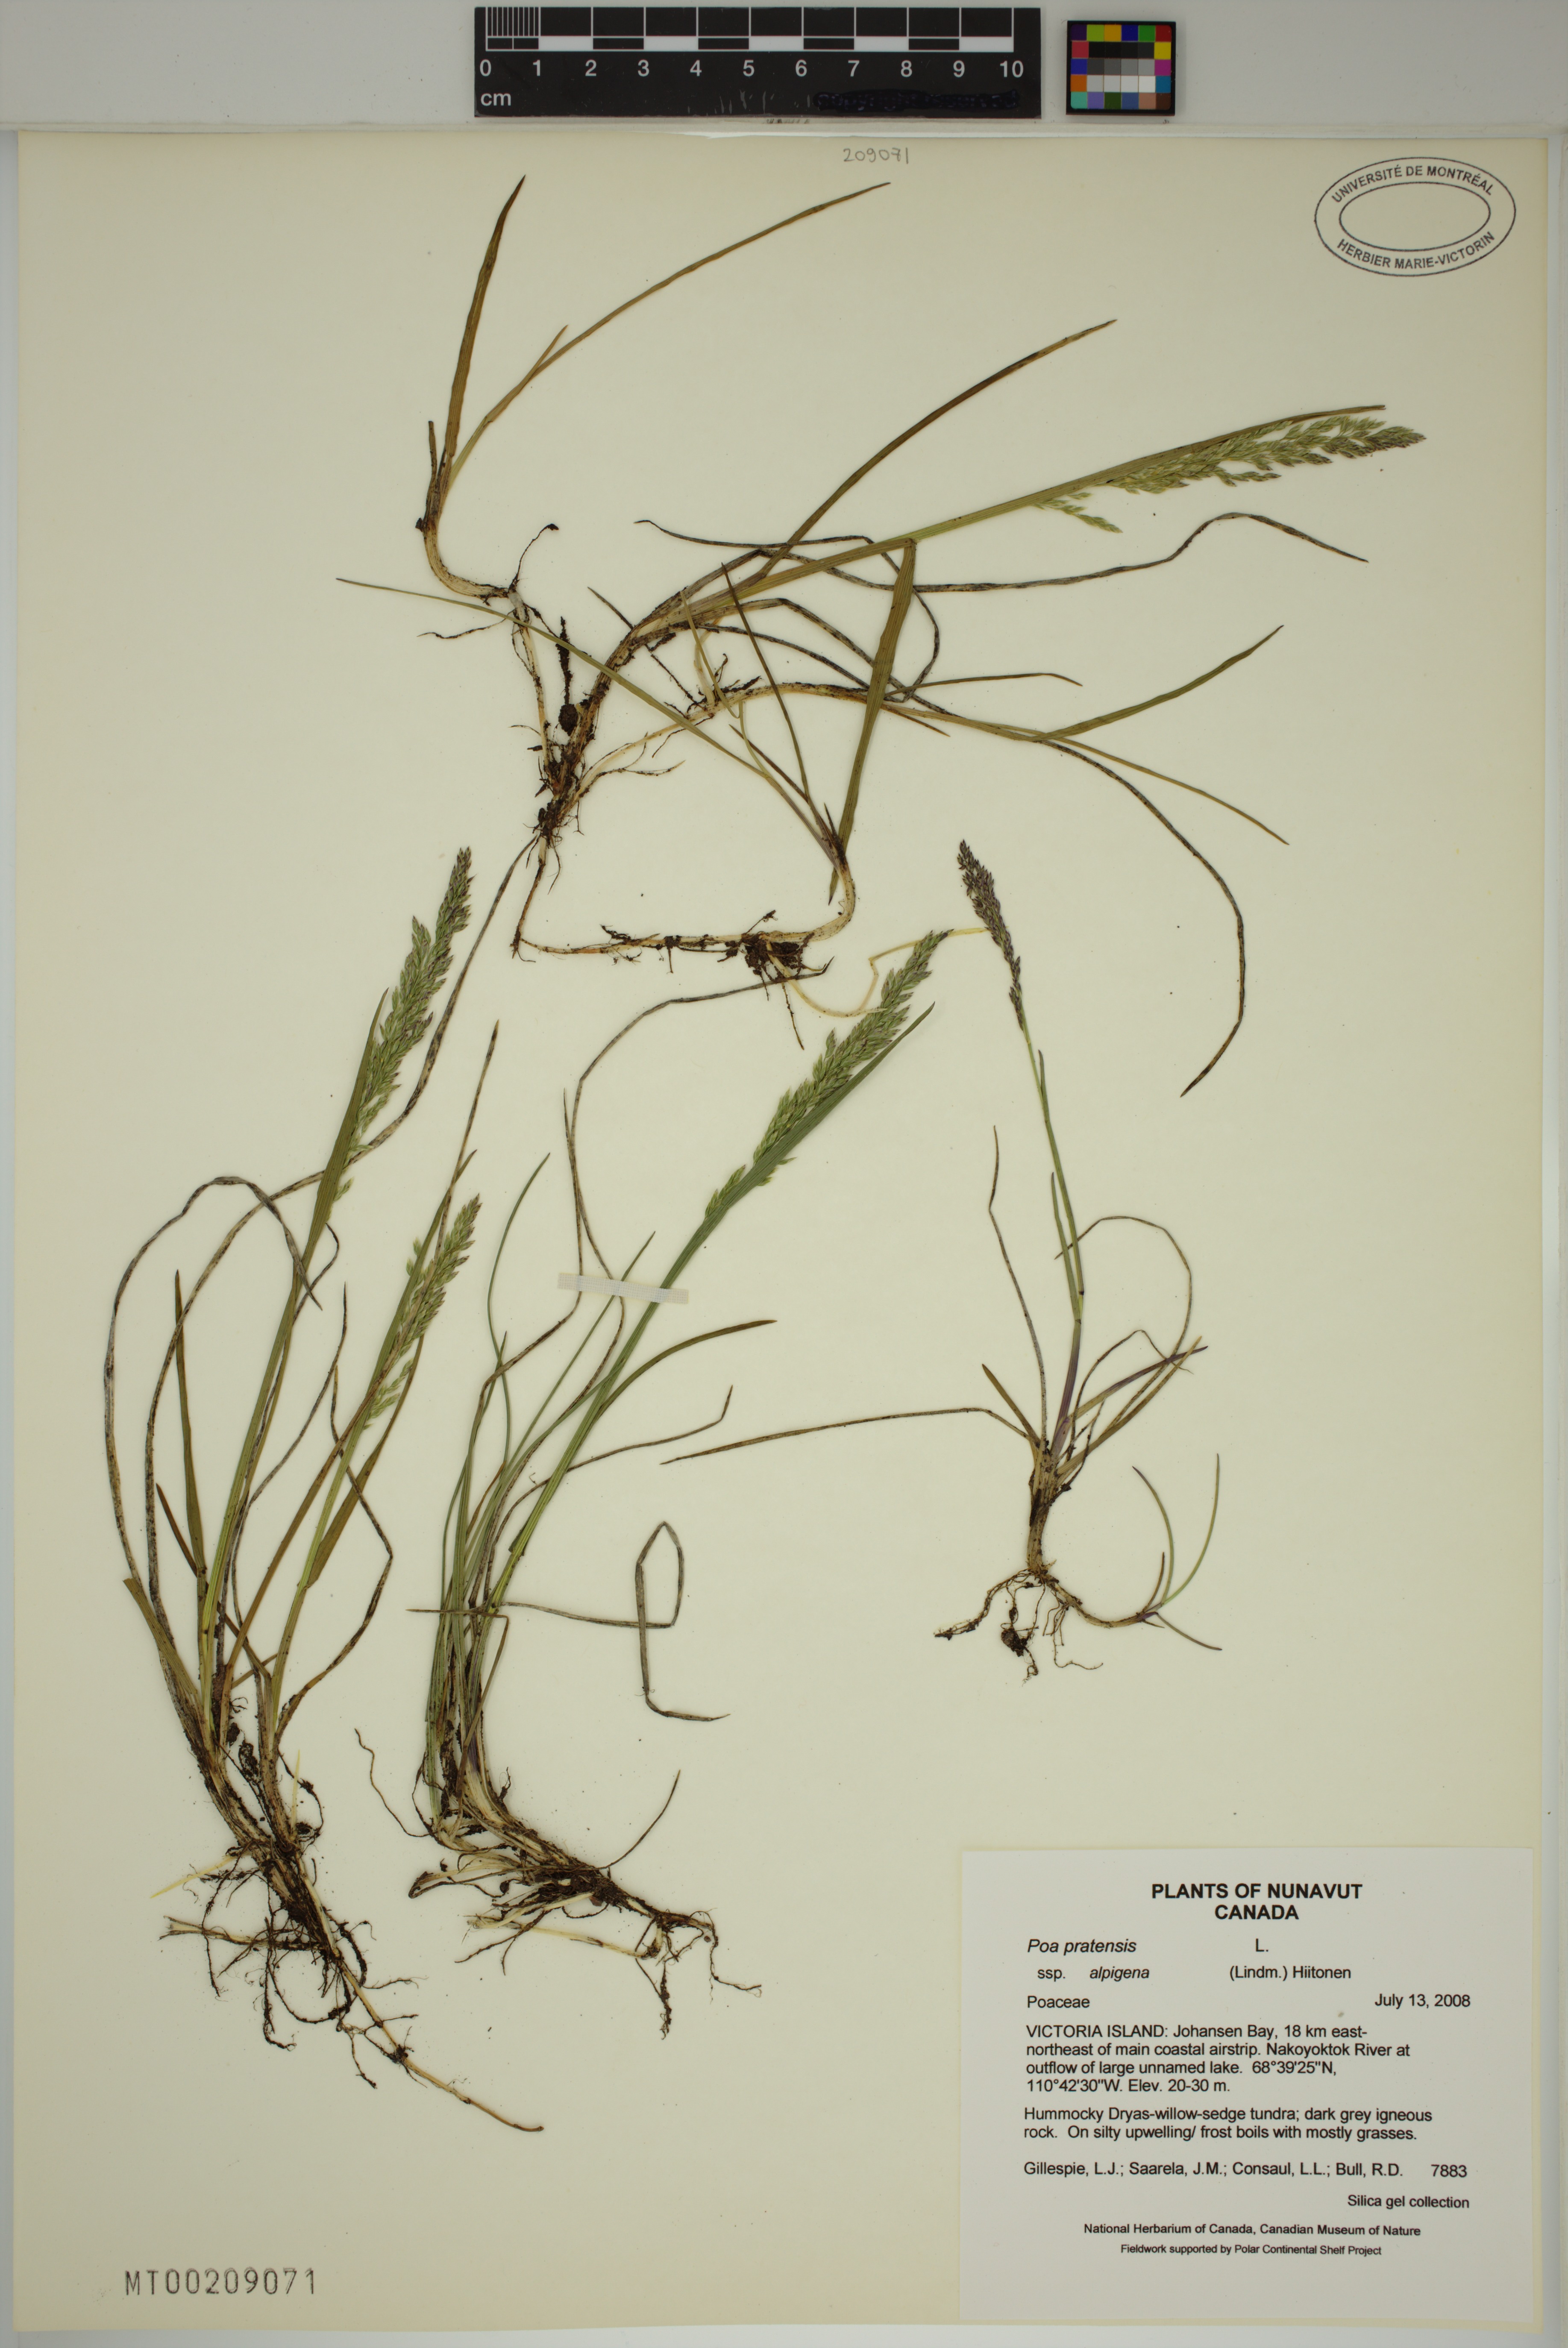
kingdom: Plantae
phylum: Tracheophyta
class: Liliopsida
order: Poales
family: Poaceae
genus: Poa
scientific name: Poa alpigena
